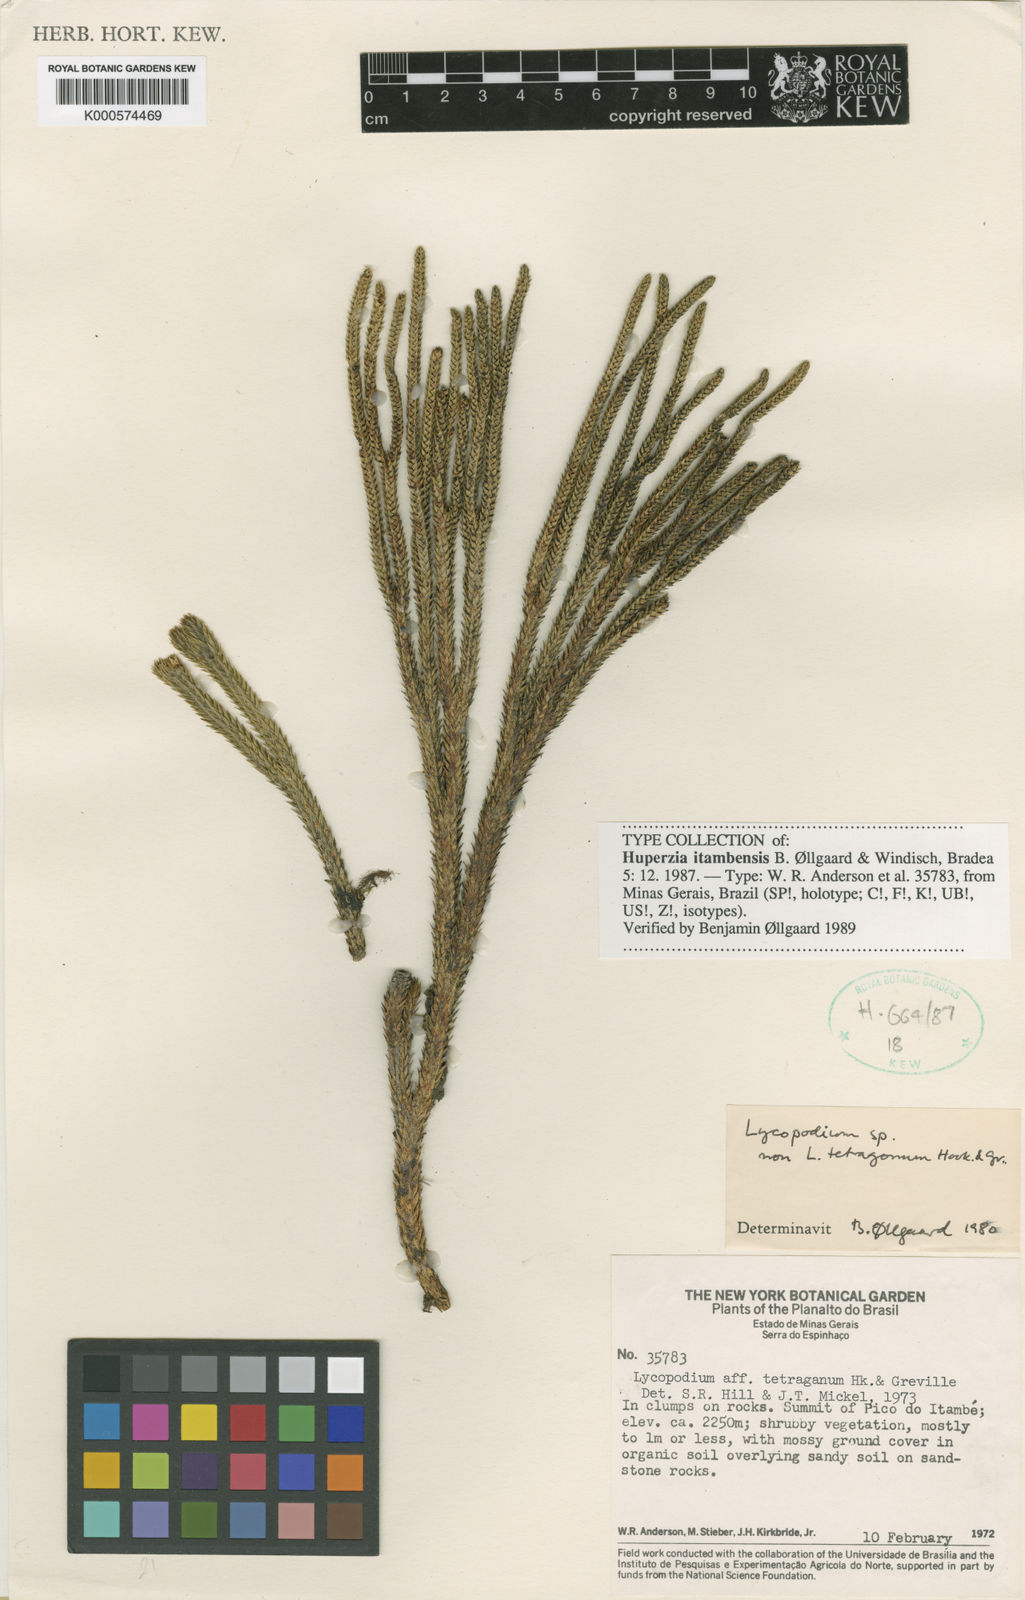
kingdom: Plantae
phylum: Tracheophyta
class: Lycopodiopsida
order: Lycopodiales
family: Lycopodiaceae
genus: Lycopodium
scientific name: Lycopodium
